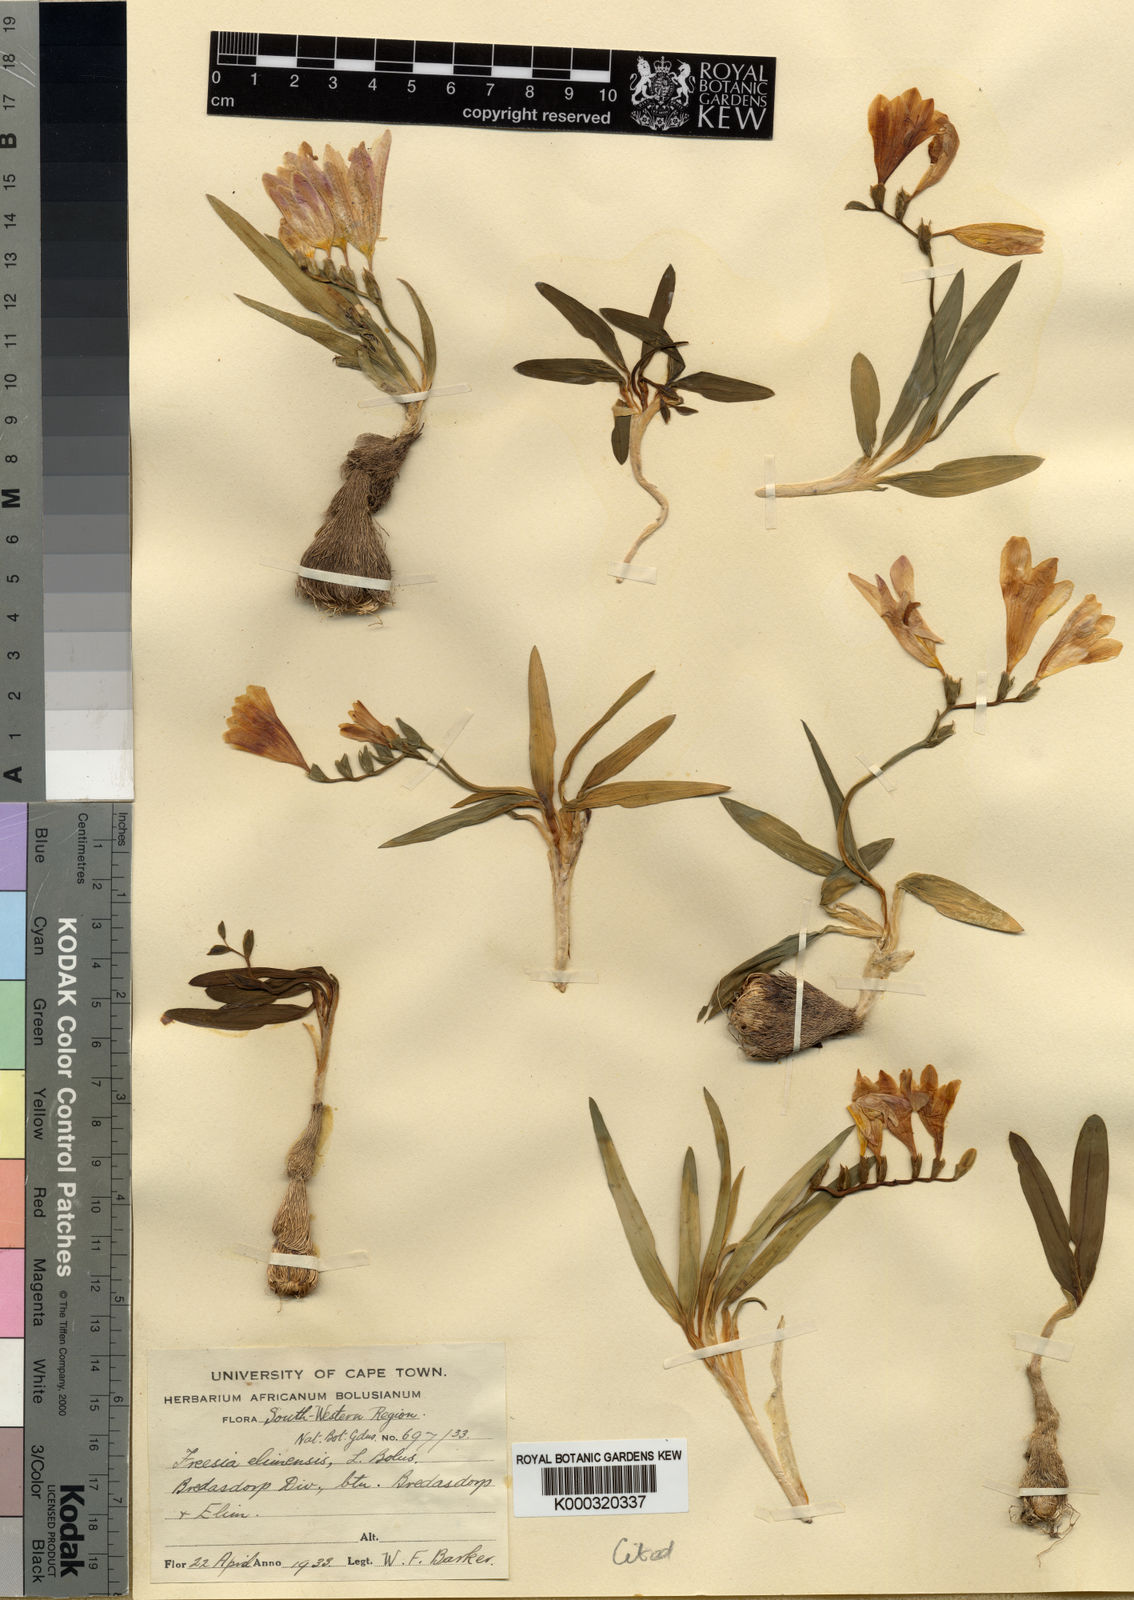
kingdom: Plantae
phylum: Tracheophyta
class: Liliopsida
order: Asparagales
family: Iridaceae
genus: Freesia
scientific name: Freesia caryophyllacea
